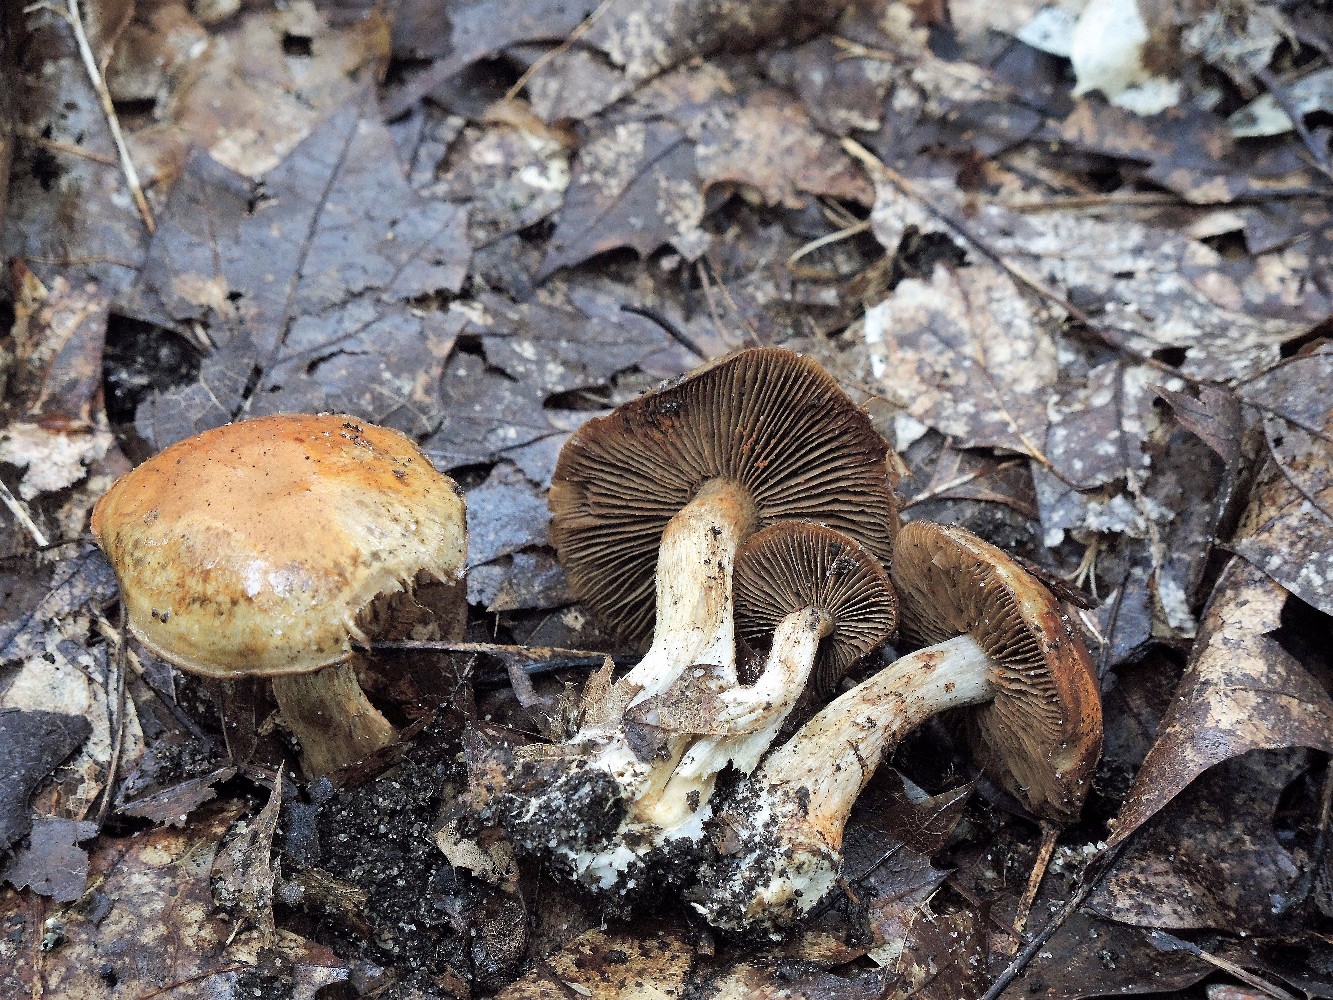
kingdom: Fungi
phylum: Basidiomycota
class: Agaricomycetes
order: Agaricales
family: Cortinariaceae
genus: Cortinarius
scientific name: Cortinarius
